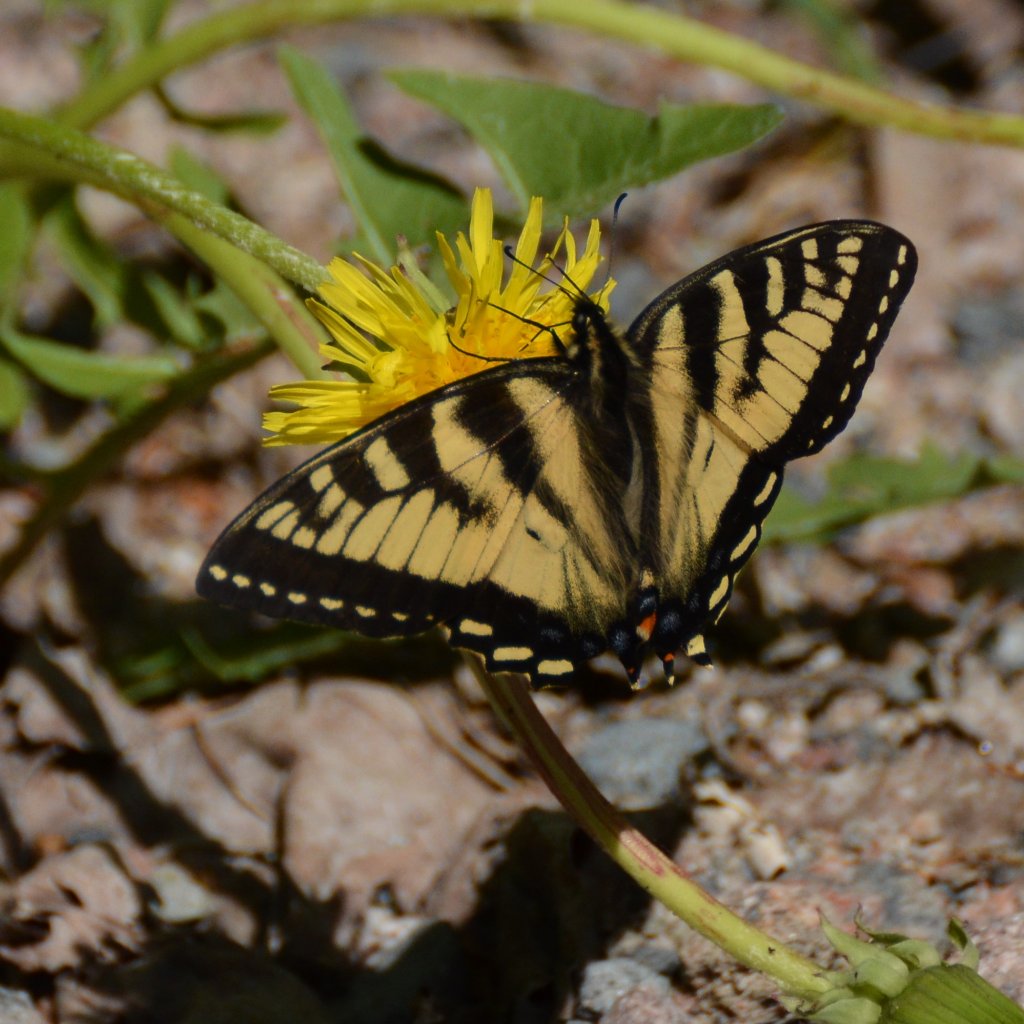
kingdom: Animalia
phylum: Arthropoda
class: Insecta
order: Lepidoptera
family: Papilionidae
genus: Pterourus
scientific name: Pterourus canadensis
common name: Canadian Tiger Swallowtail
